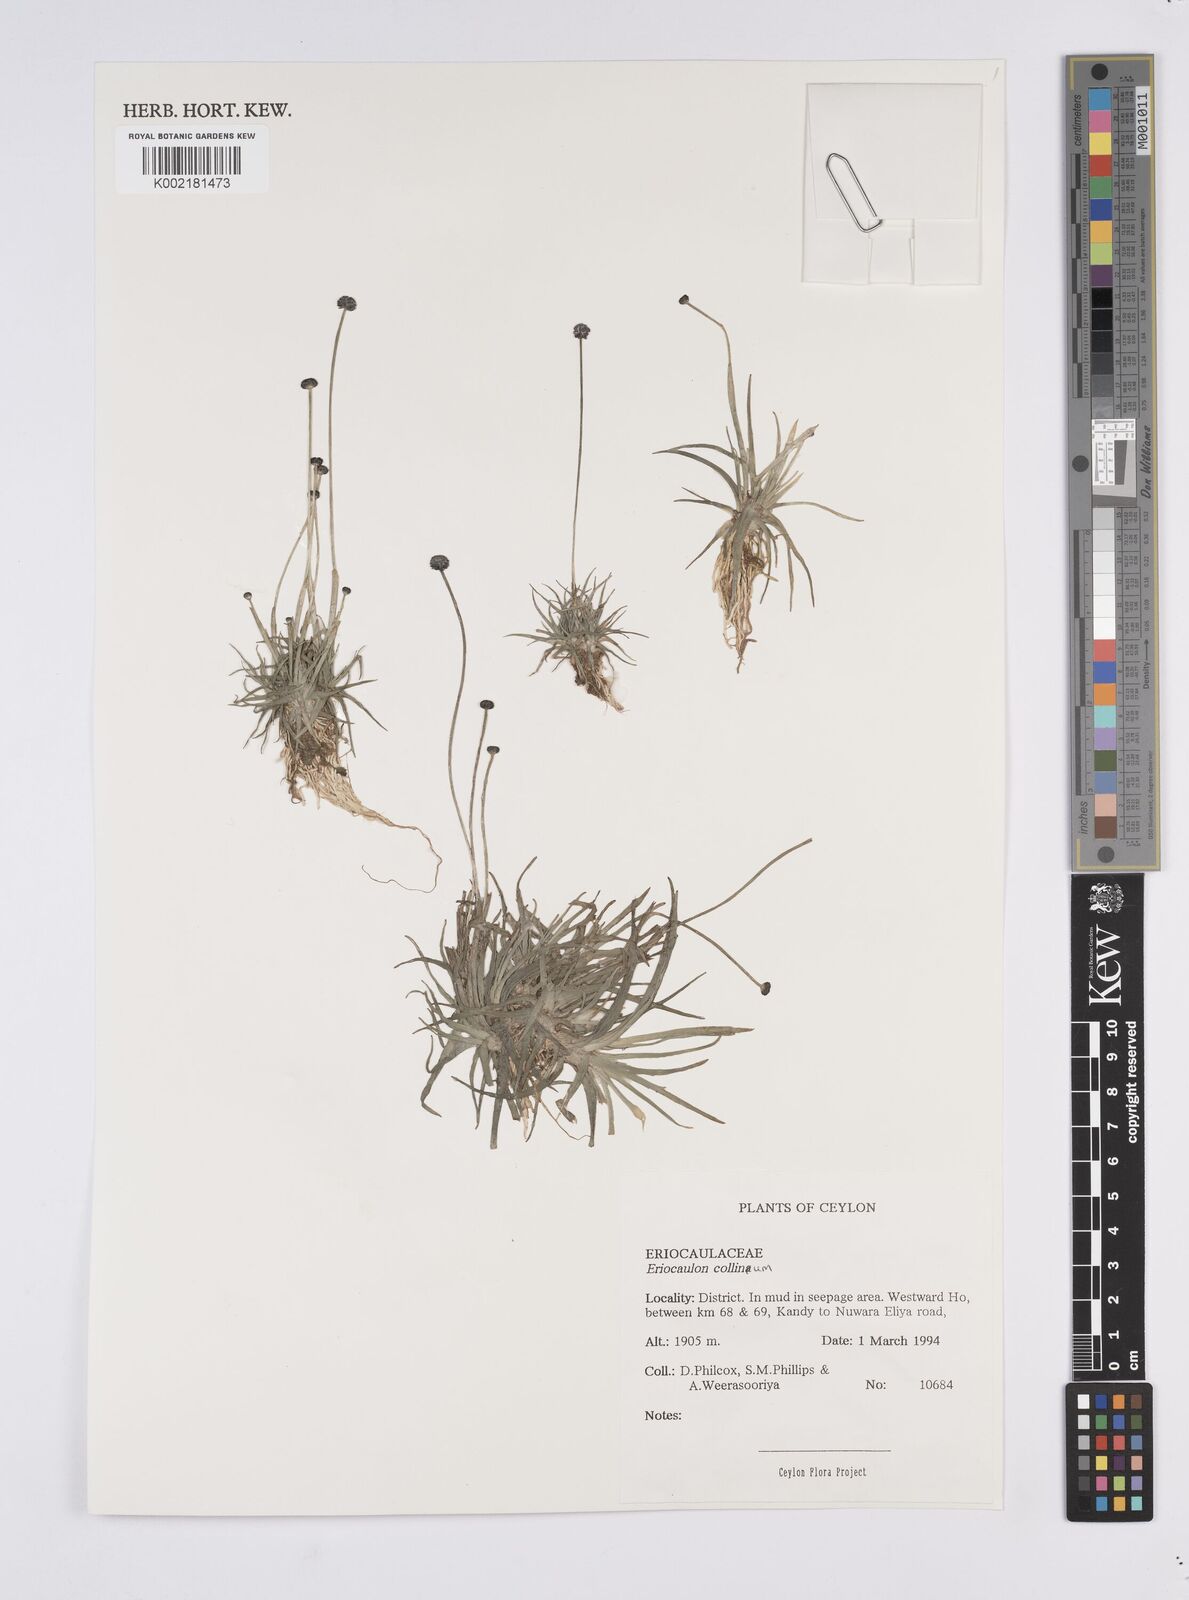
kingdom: Plantae
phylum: Tracheophyta
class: Liliopsida
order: Poales
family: Eriocaulaceae
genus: Eriocaulon
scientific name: Eriocaulon odoratum
